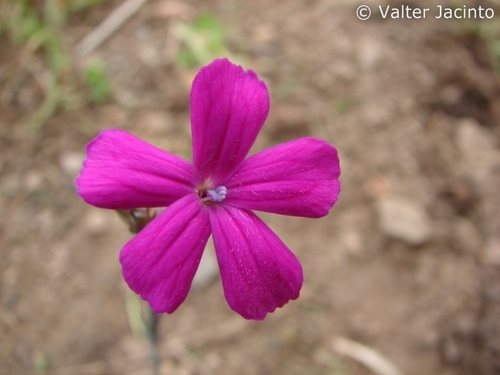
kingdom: Plantae
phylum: Tracheophyta
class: Magnoliopsida
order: Caryophyllales
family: Caryophyllaceae
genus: Dianthus
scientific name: Dianthus lusitanus
